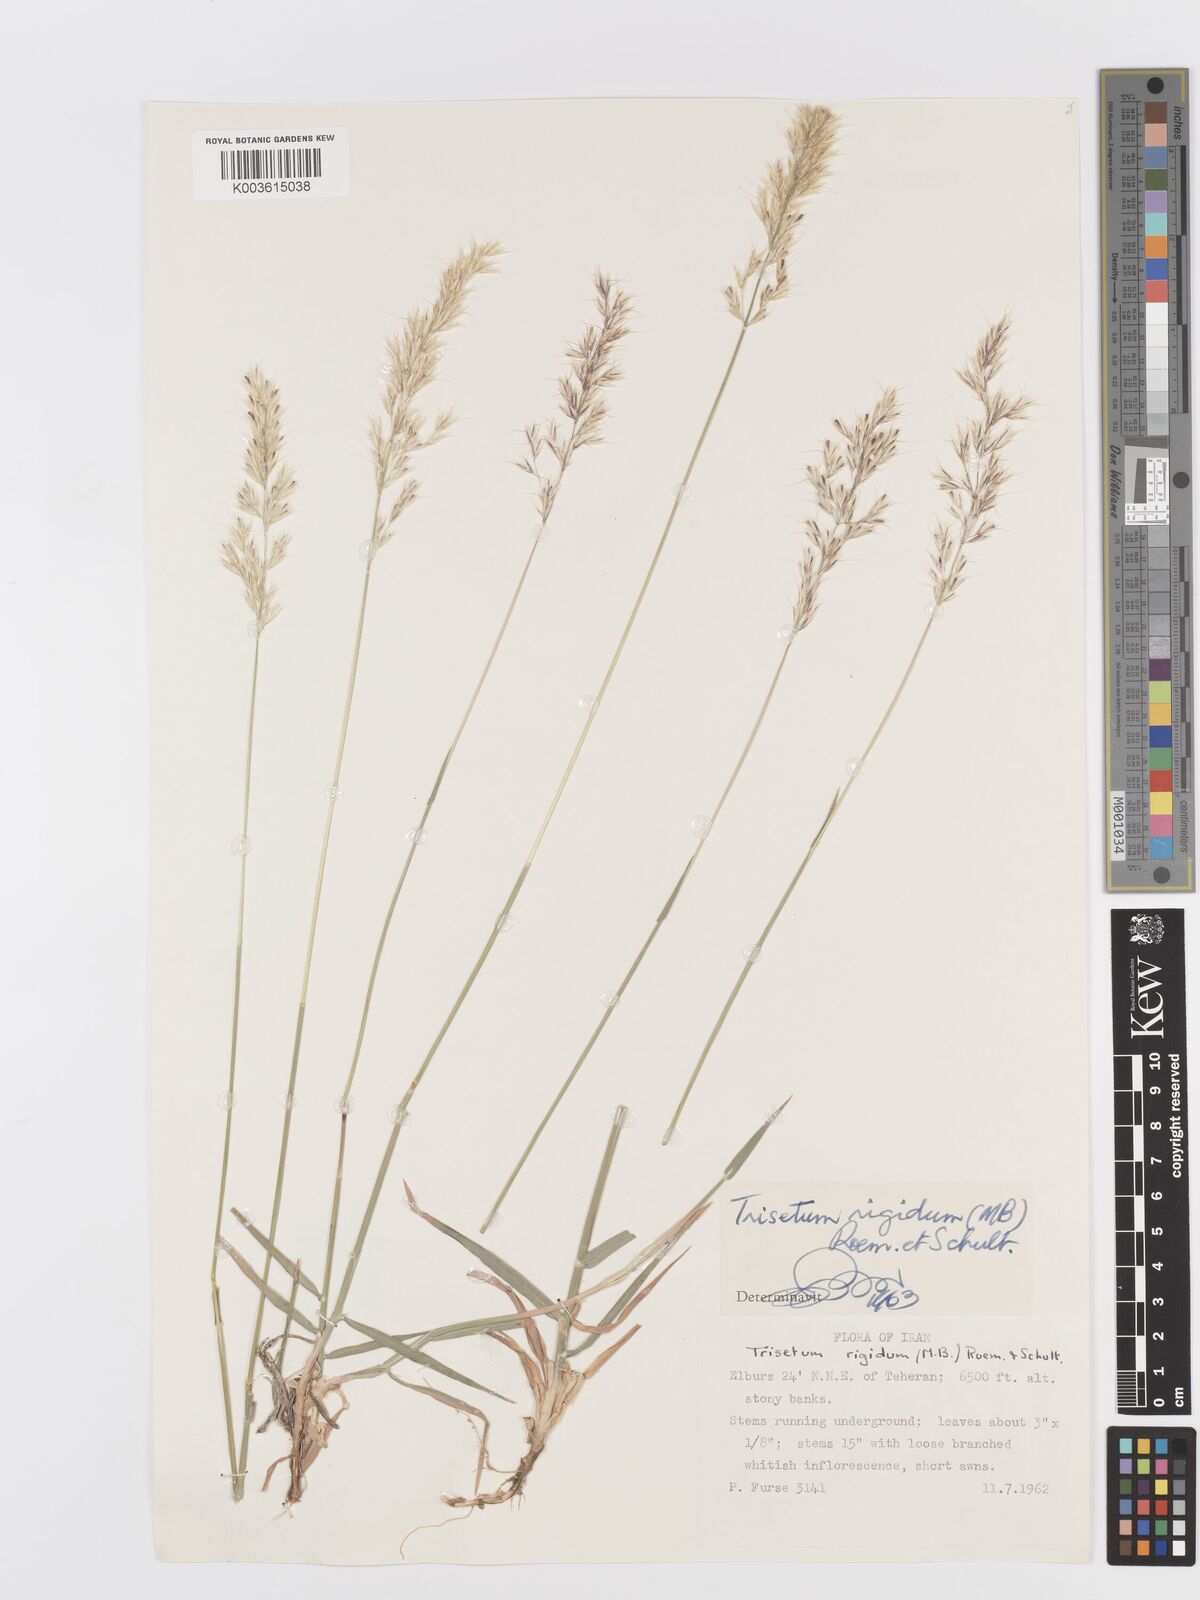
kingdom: Plantae
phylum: Tracheophyta
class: Liliopsida
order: Poales
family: Poaceae
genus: Trisetum
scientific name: Trisetum rigidum
